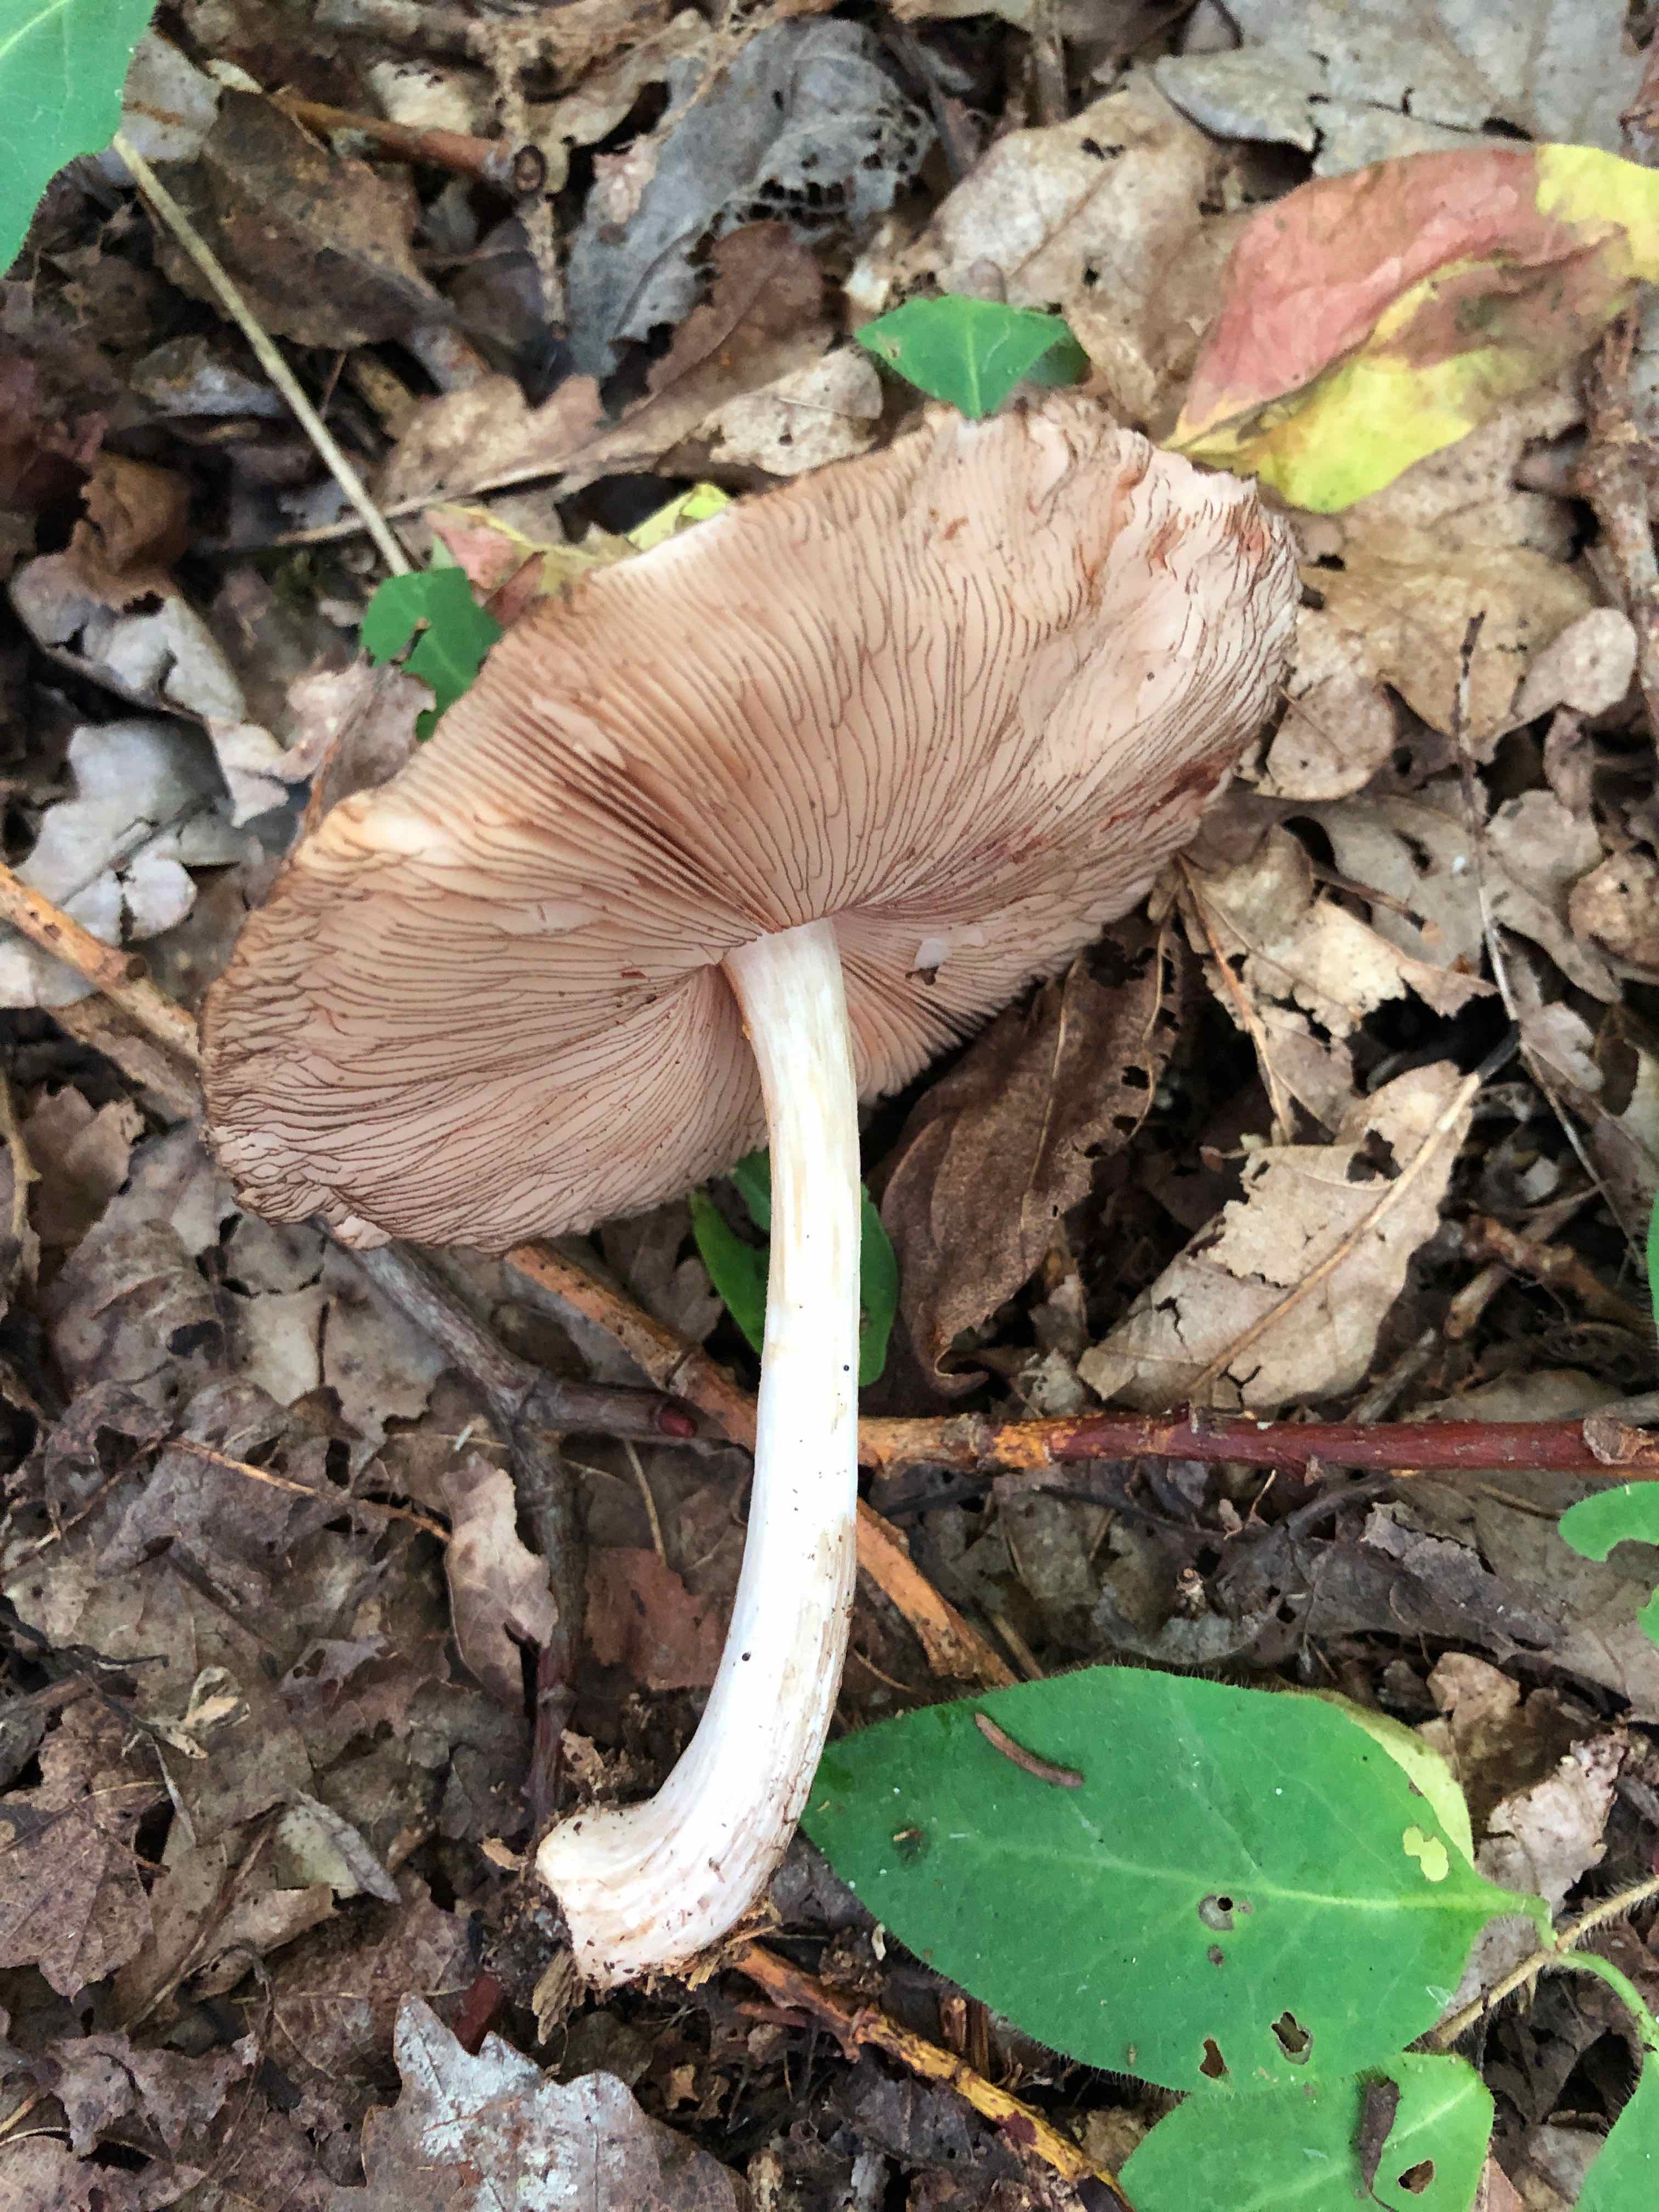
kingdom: Fungi
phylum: Basidiomycota
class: Agaricomycetes
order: Agaricales
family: Pluteaceae
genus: Pluteus
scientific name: Pluteus atromarginatus
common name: sortrandet skærmhat
